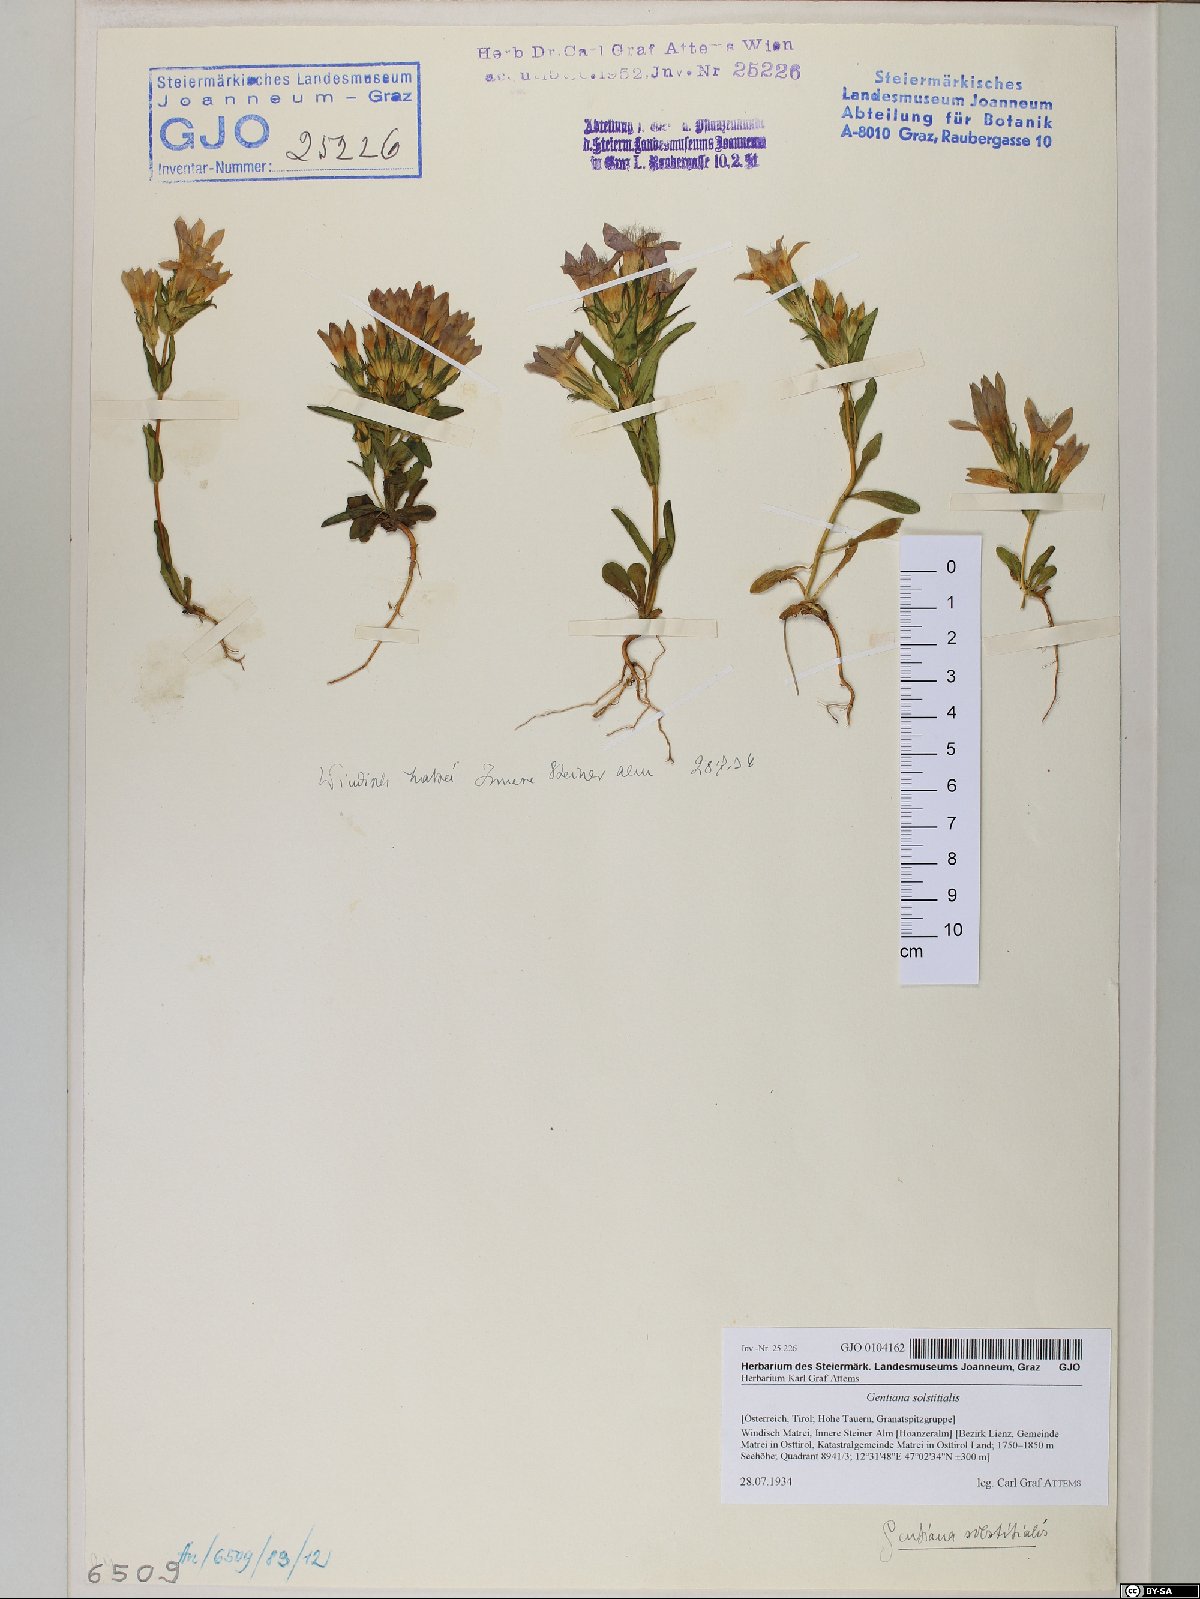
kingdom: Plantae
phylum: Tracheophyta
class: Magnoliopsida
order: Gentianales
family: Gentianaceae
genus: Gentianella
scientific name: Gentianella germanica
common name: Chiltern-gentian
